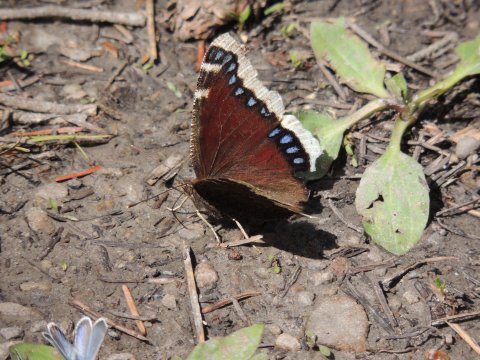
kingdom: Animalia
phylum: Arthropoda
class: Insecta
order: Lepidoptera
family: Nymphalidae
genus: Nymphalis
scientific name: Nymphalis antiopa
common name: Mourning Cloak
